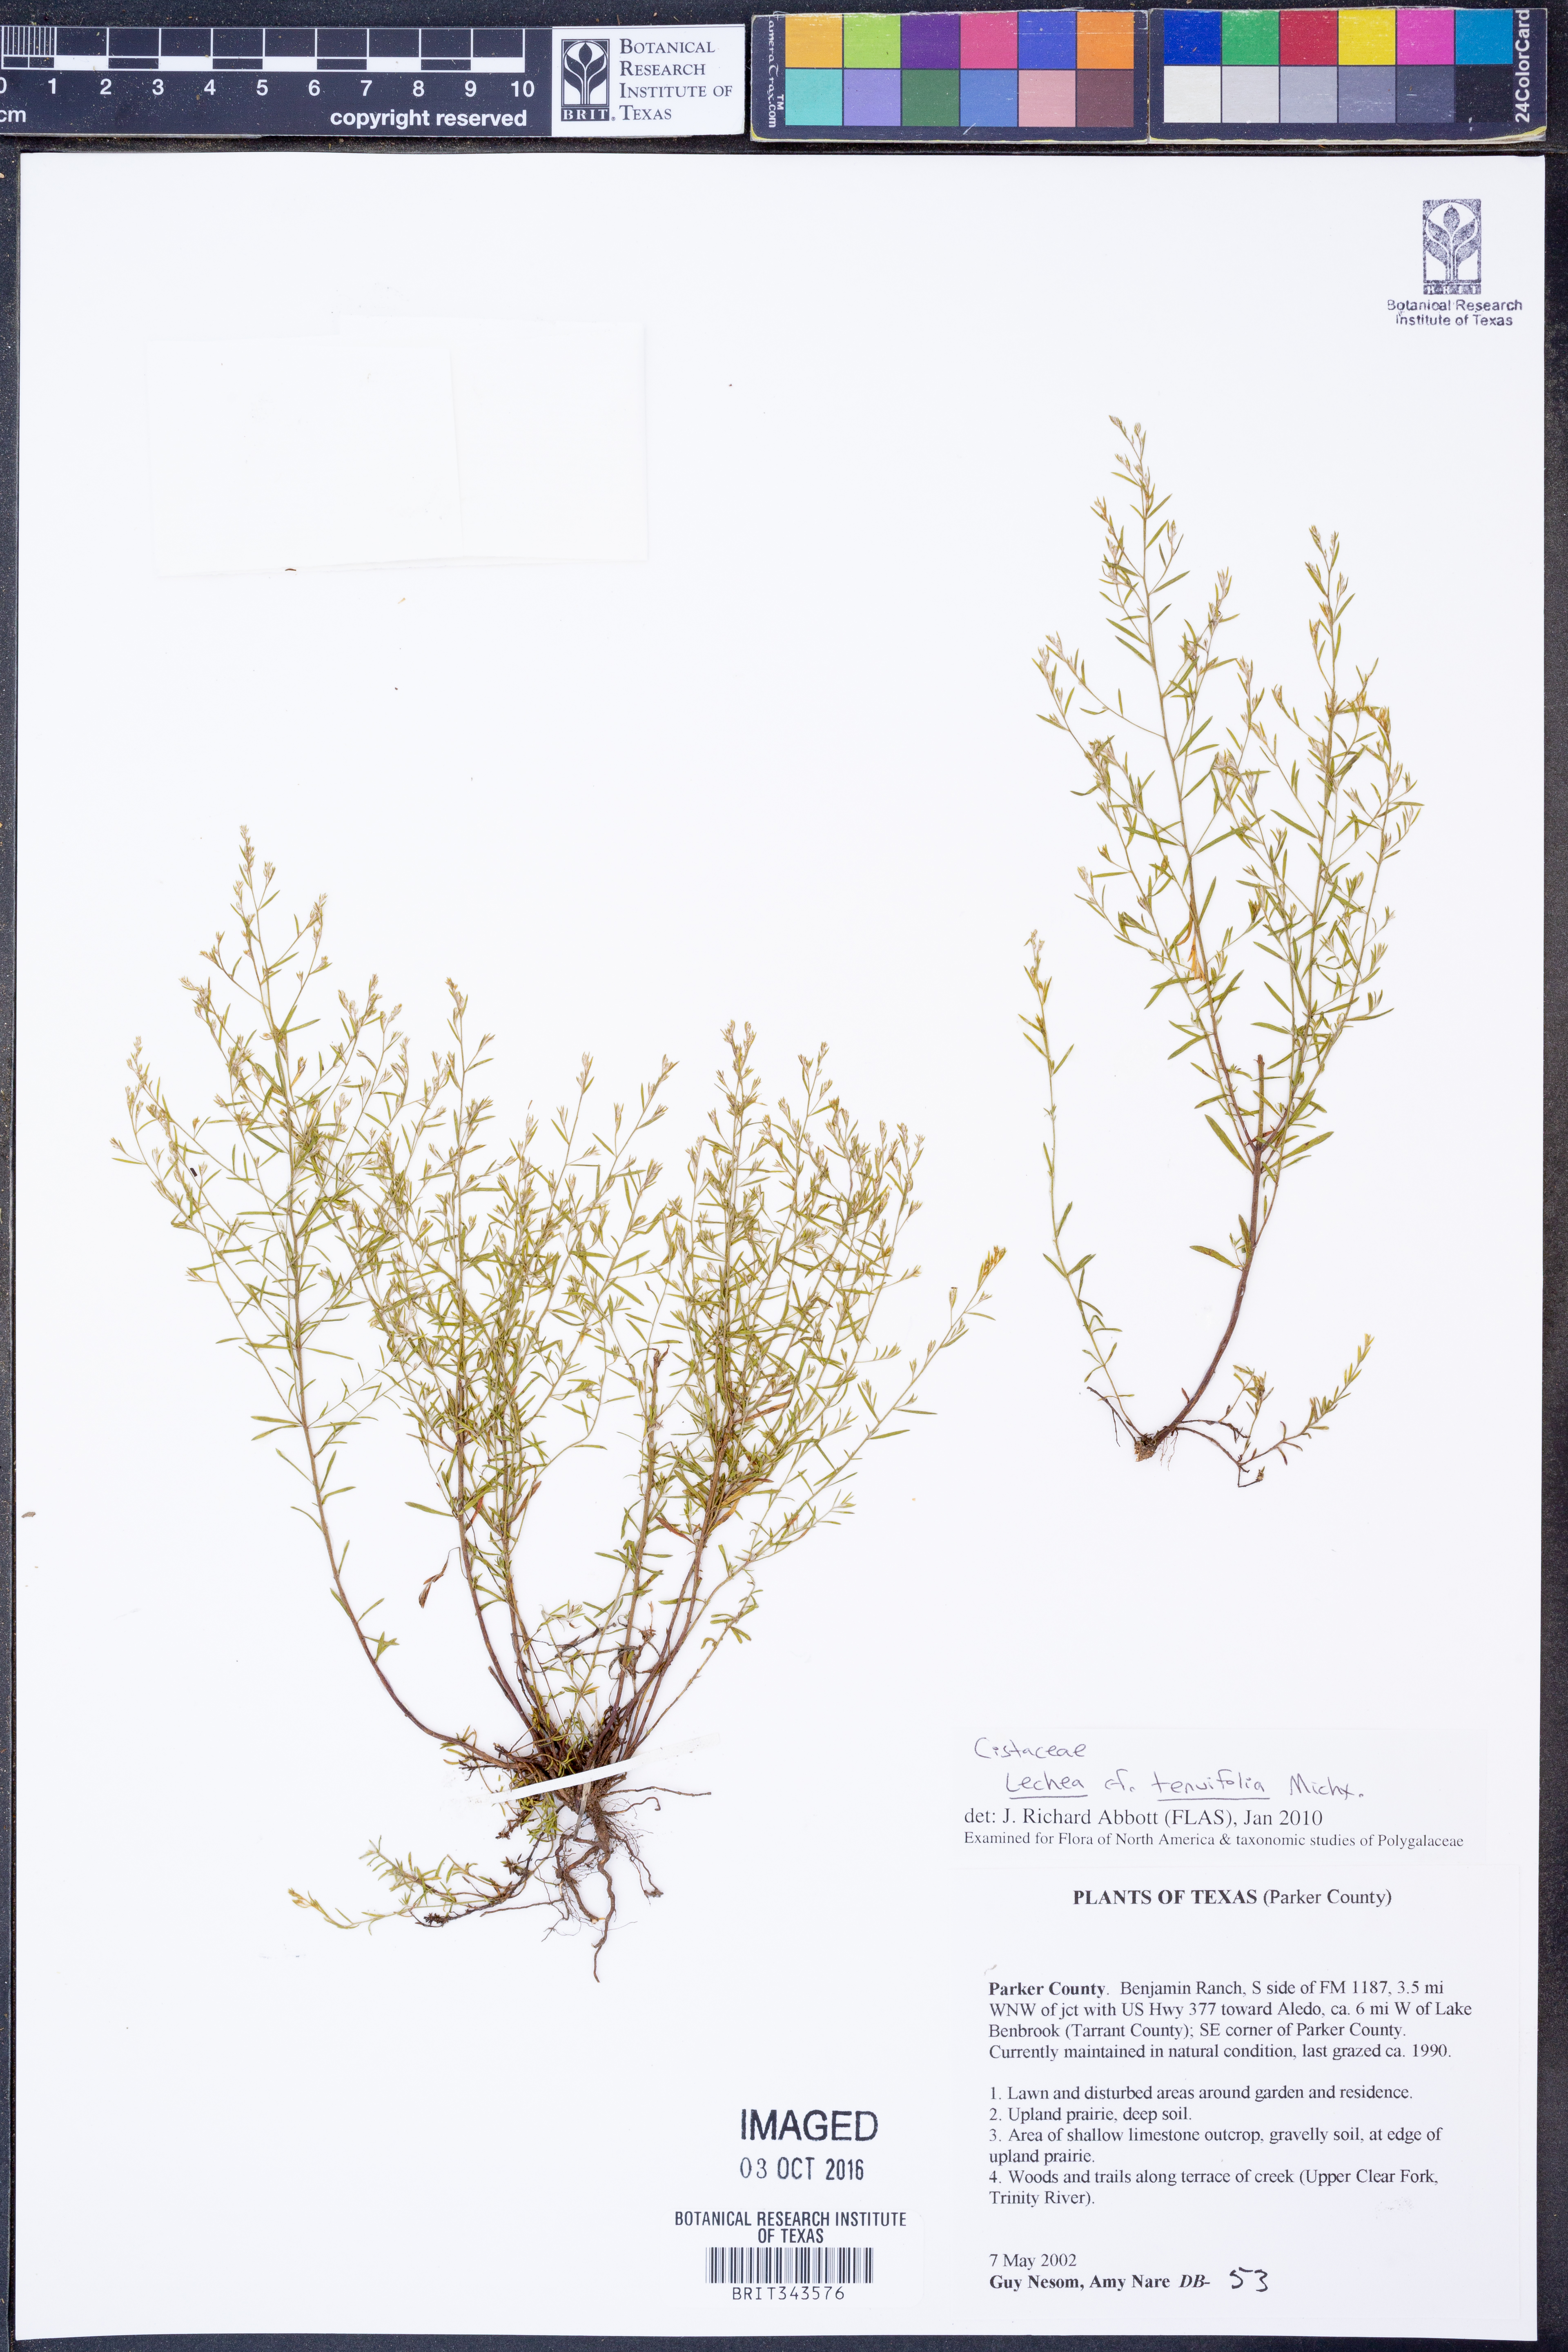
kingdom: Plantae
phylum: Tracheophyta
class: Magnoliopsida
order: Malvales
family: Cistaceae
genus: Lechea
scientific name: Lechea tenuifolia
